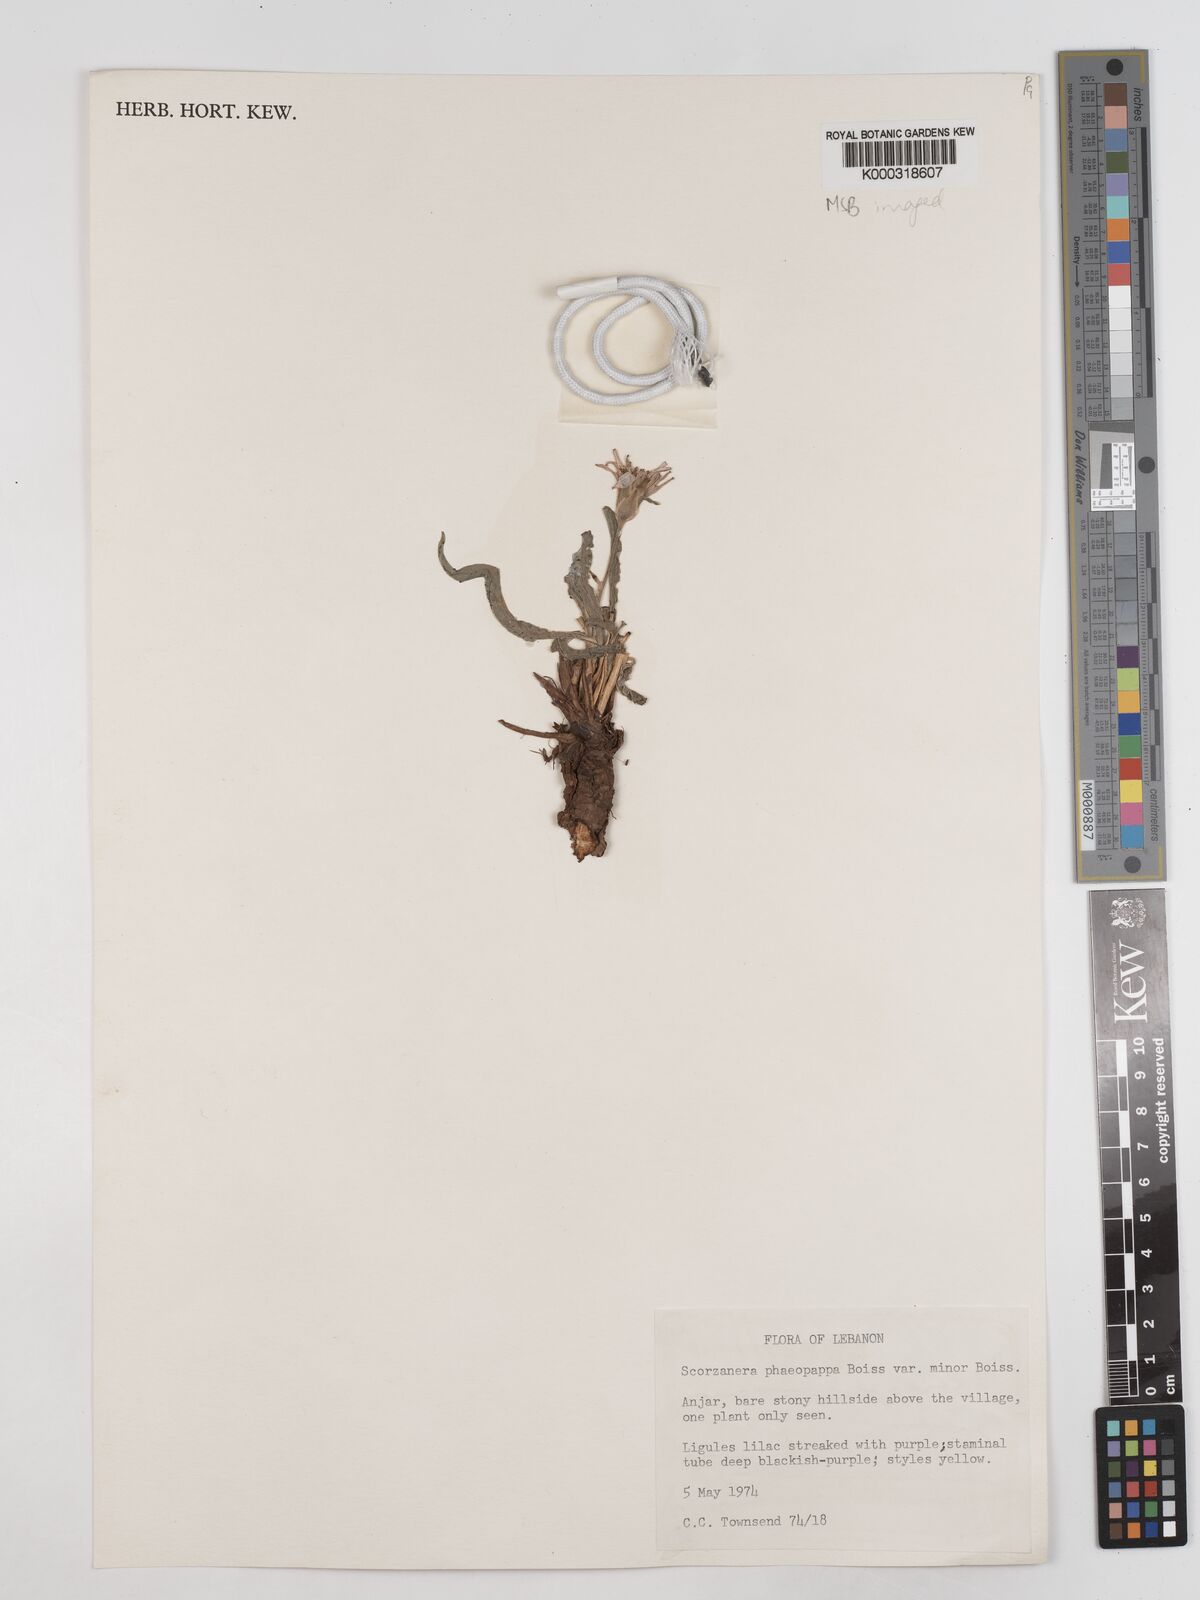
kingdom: Plantae
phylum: Tracheophyta
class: Magnoliopsida
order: Asterales
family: Asteraceae
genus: Pseudopodospermum
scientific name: Pseudopodospermum phaeopappum
